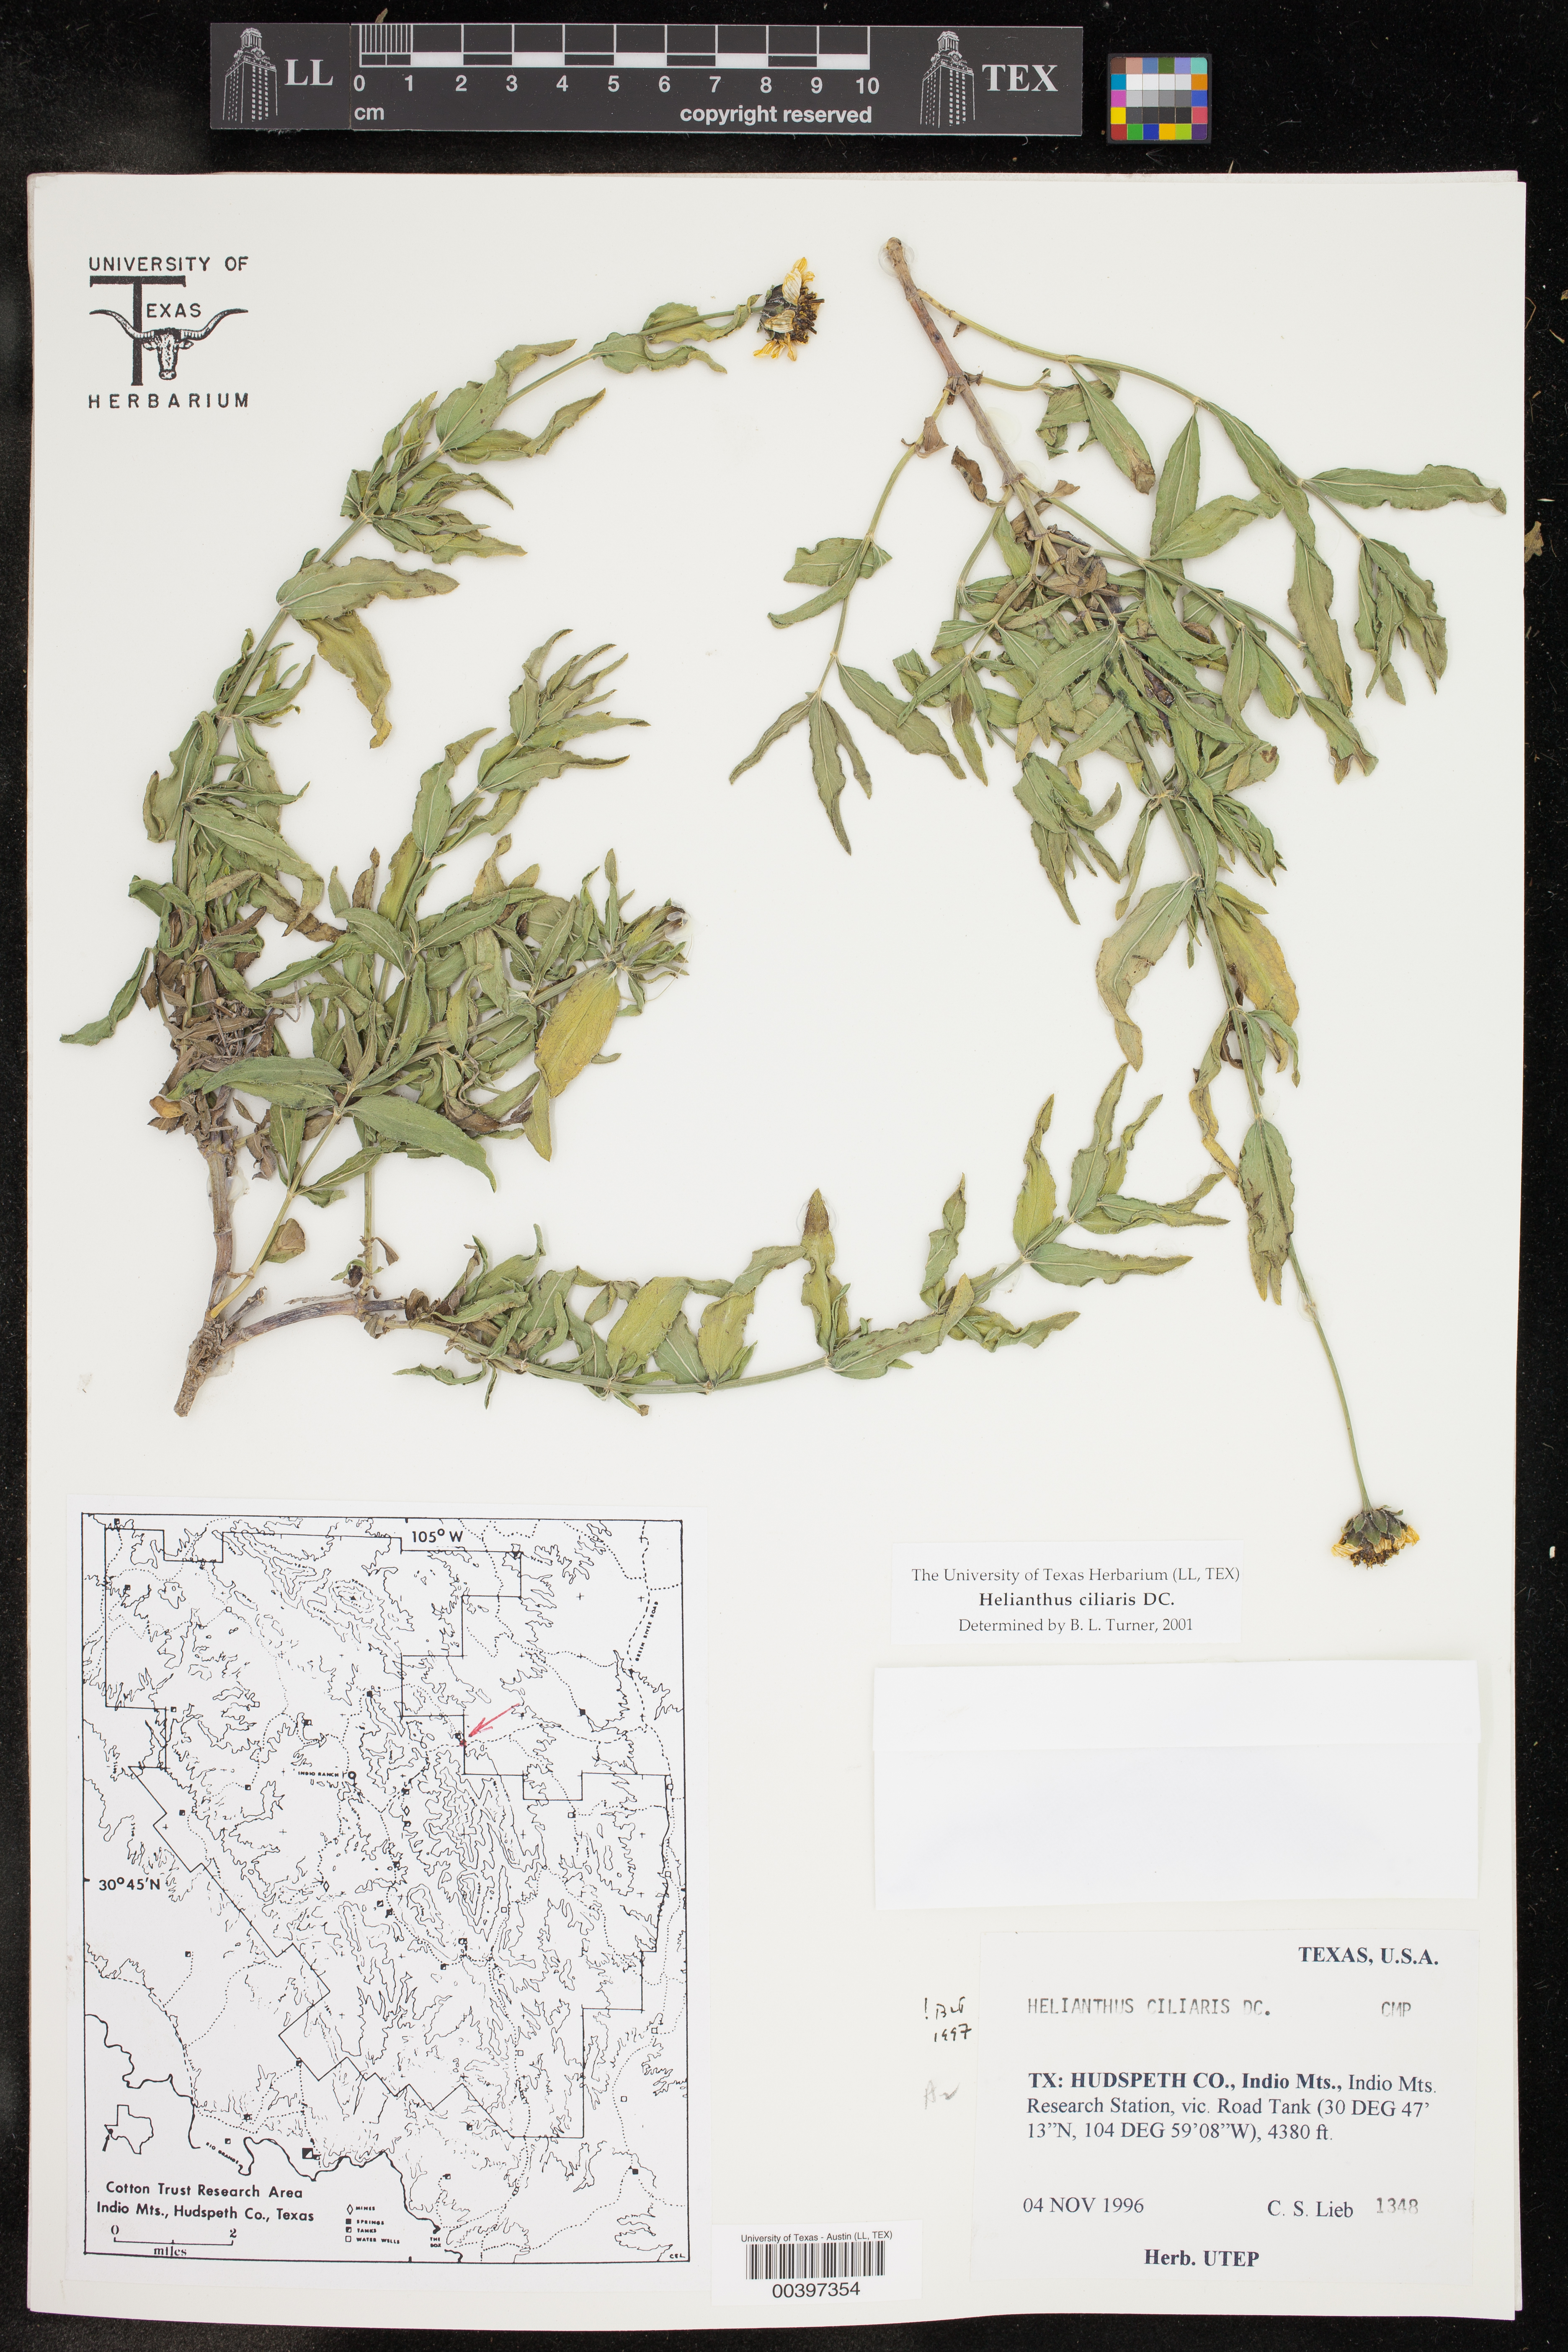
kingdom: Plantae
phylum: Tracheophyta
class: Magnoliopsida
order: Asterales
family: Asteraceae
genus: Helianthus
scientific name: Helianthus ciliaris
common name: Texas blueweed
